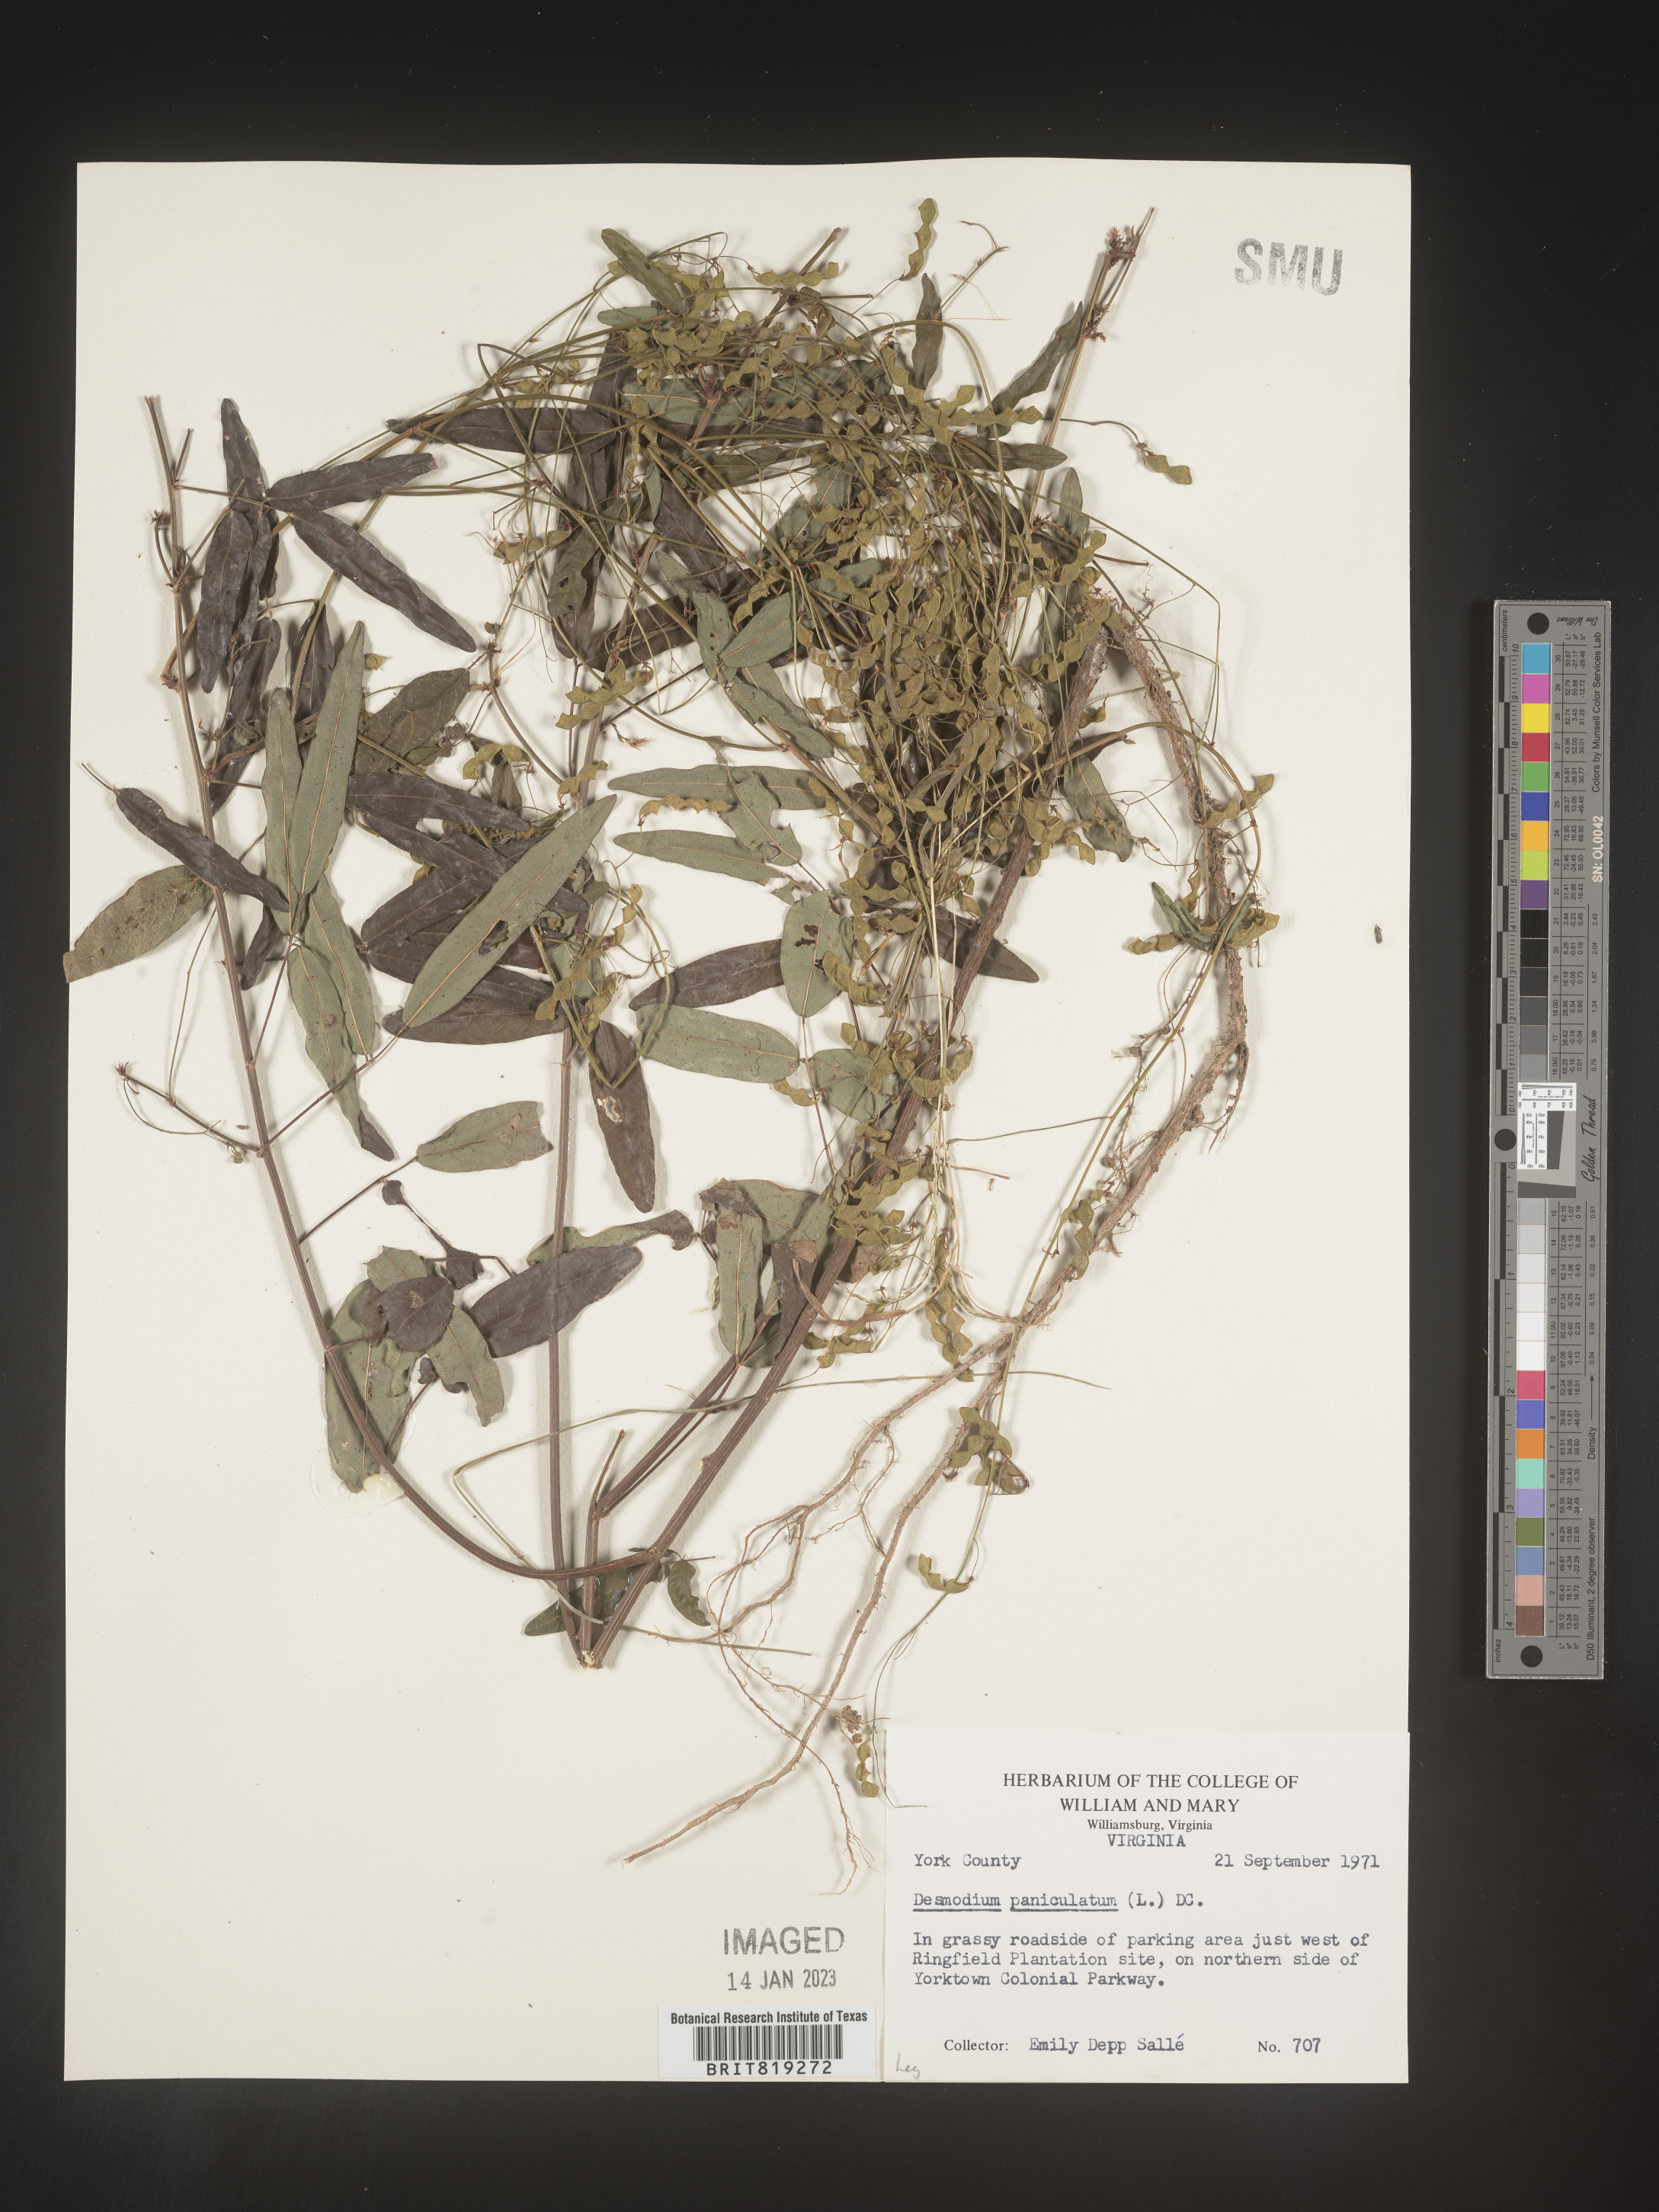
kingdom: Plantae
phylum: Tracheophyta
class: Magnoliopsida
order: Fabales
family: Fabaceae
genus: Desmodium
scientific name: Desmodium paniculatum
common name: Panicled tick-clover
